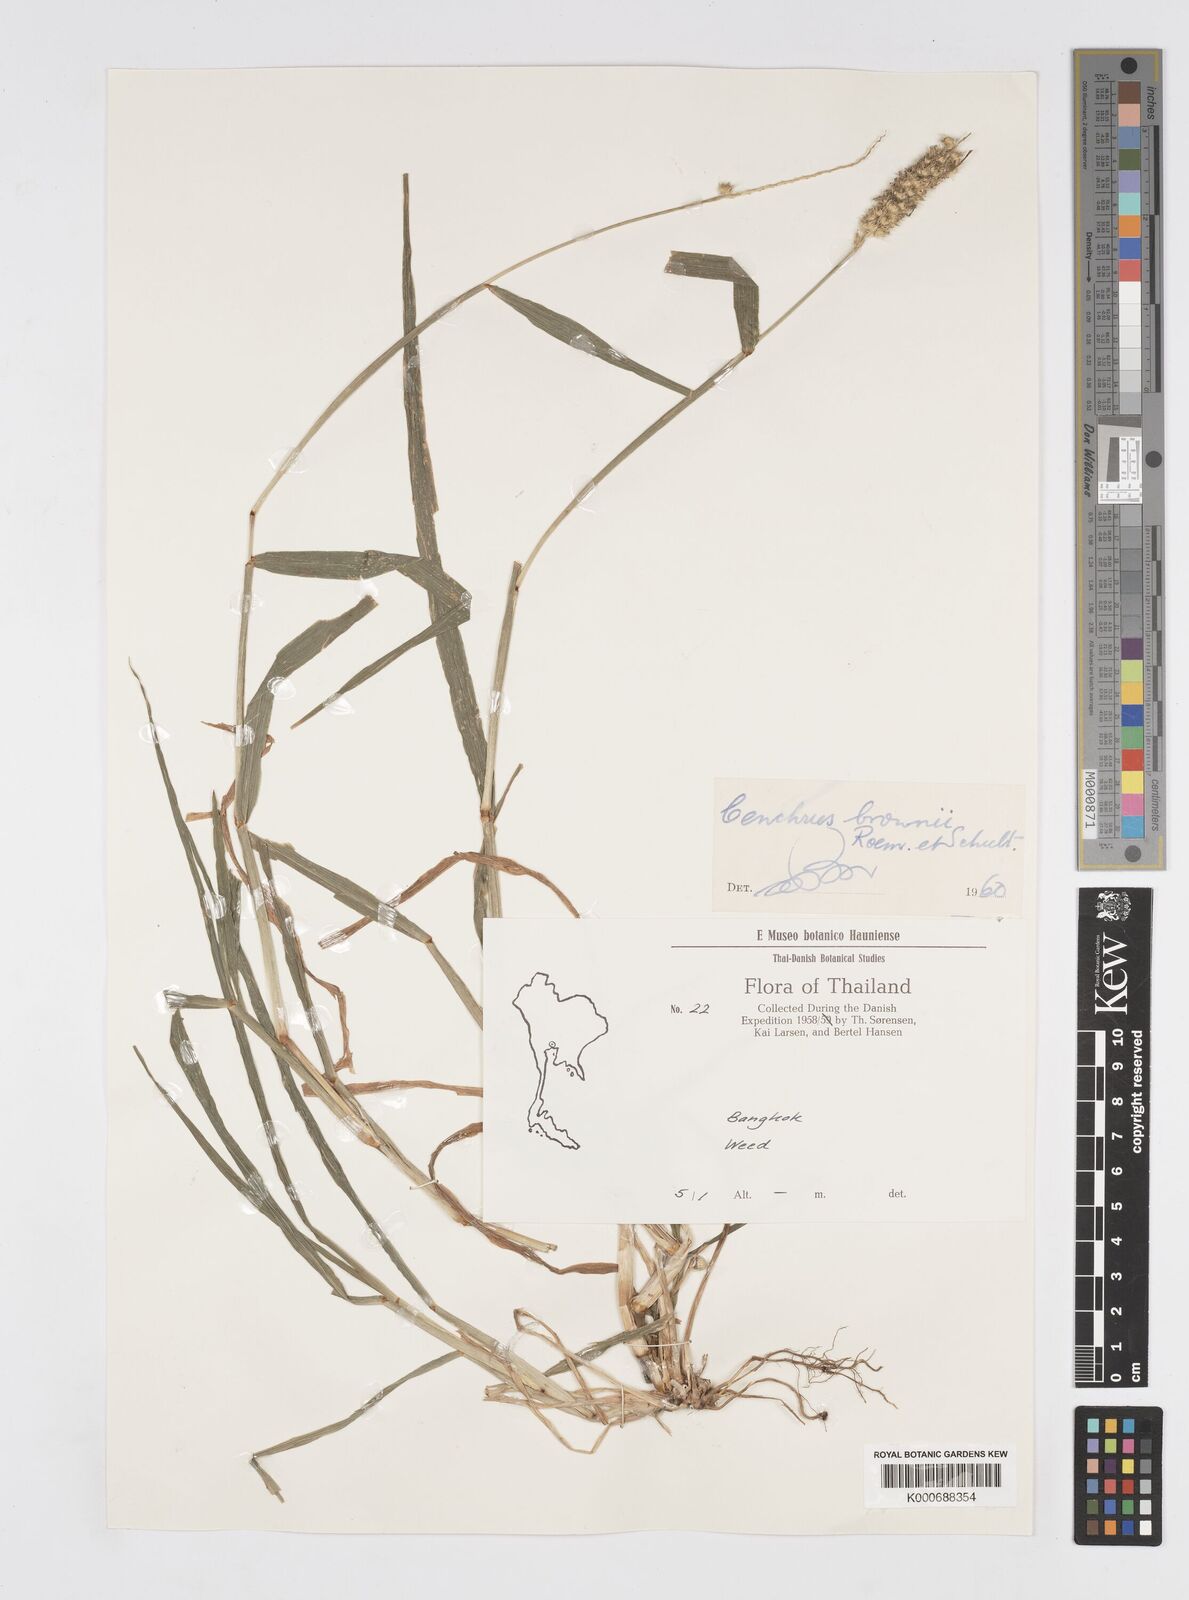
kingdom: Plantae
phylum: Tracheophyta
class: Liliopsida
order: Poales
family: Poaceae
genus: Cenchrus
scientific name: Cenchrus brownii
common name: Slim-bristle sandbur
